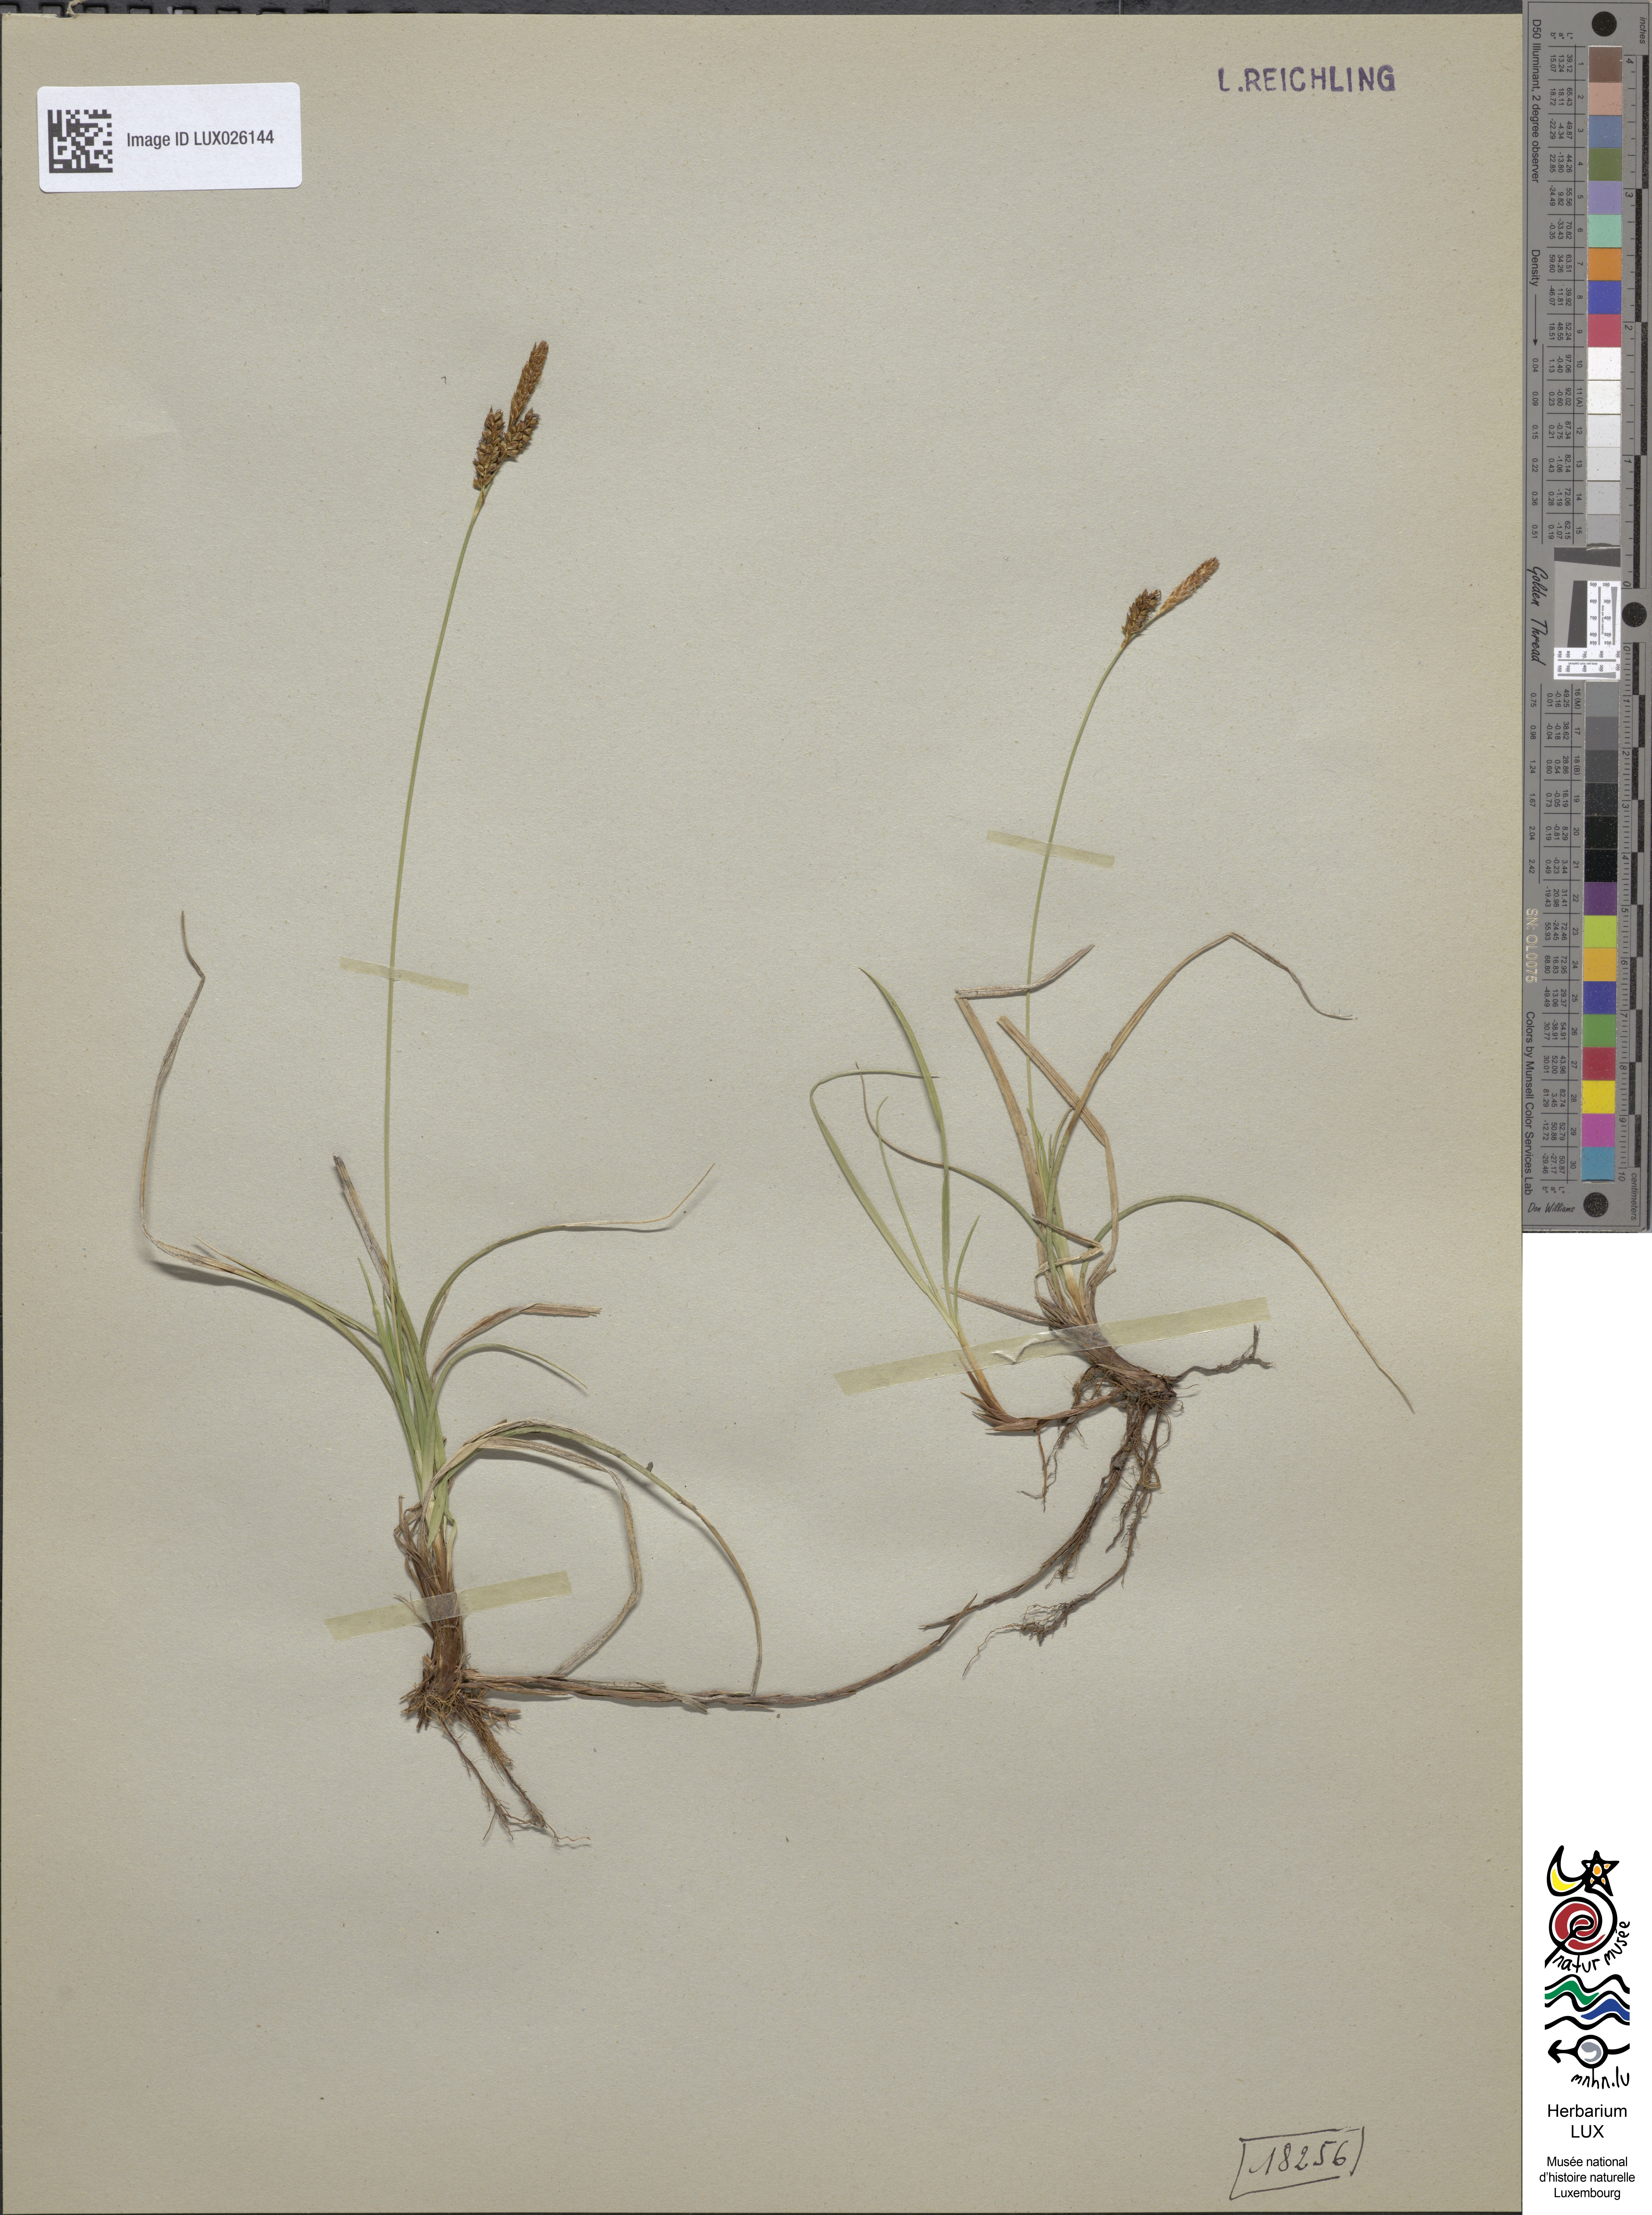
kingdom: Plantae
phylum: Tracheophyta
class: Liliopsida
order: Poales
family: Cyperaceae
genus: Carex
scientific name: Carex caryophyllea
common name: Spring sedge
